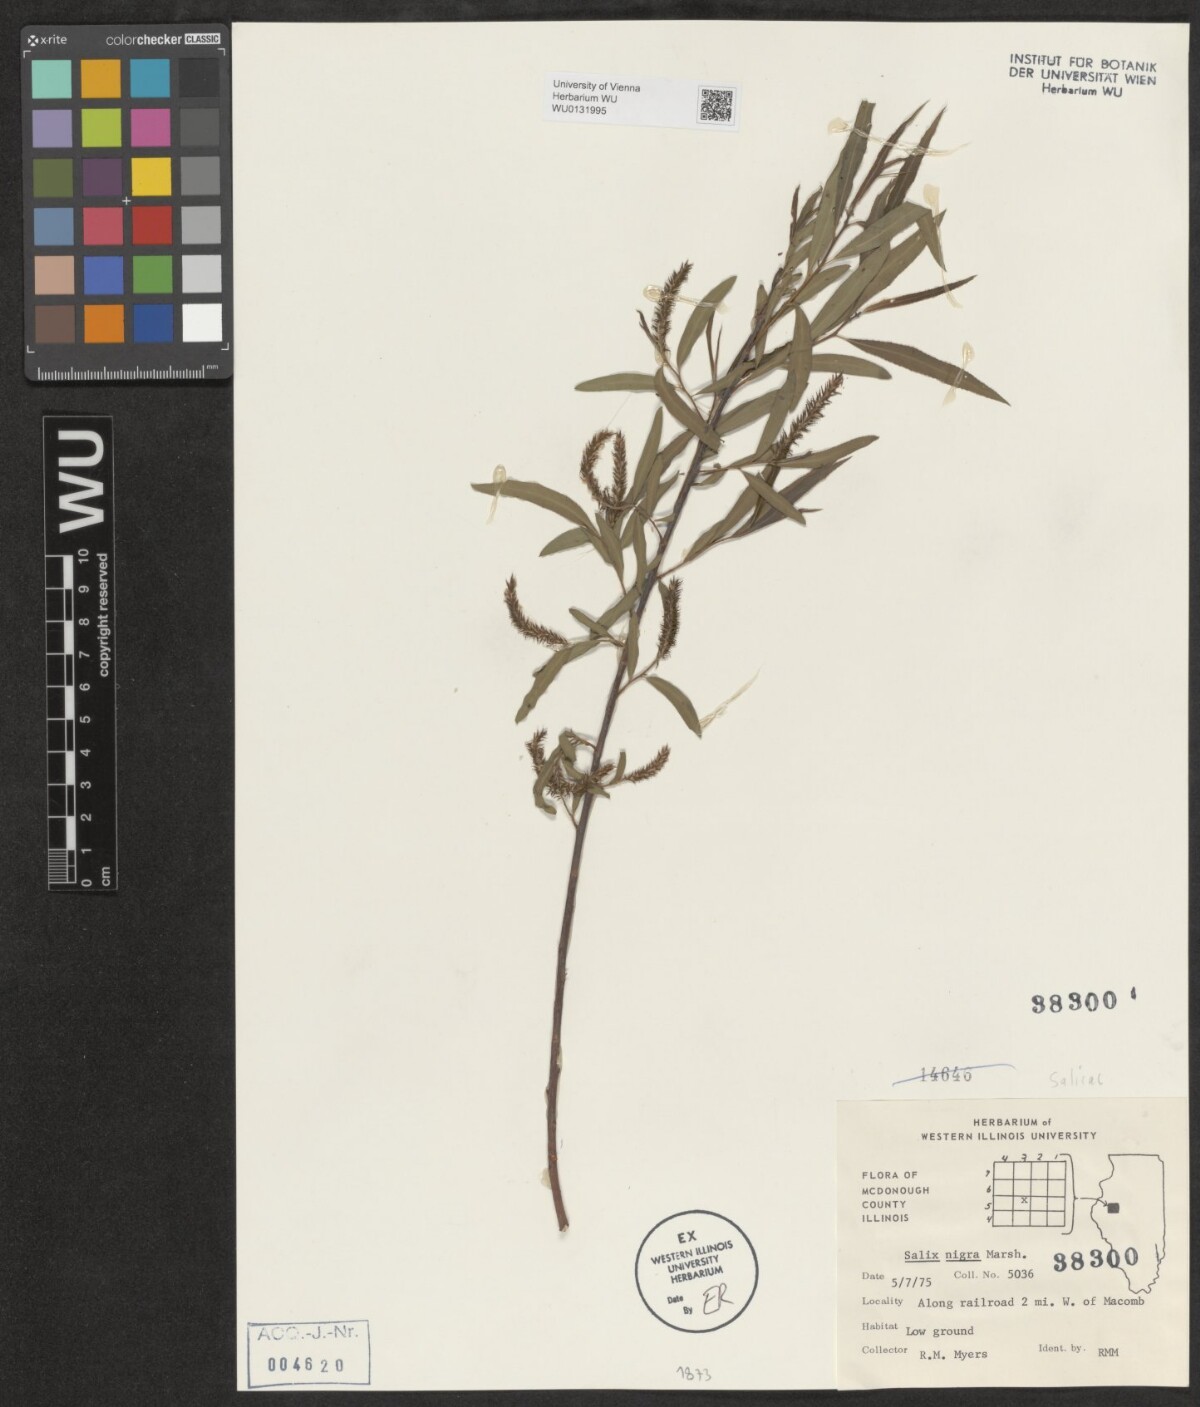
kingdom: Plantae
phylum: Tracheophyta
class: Magnoliopsida
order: Malpighiales
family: Salicaceae
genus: Salix
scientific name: Salix nigra
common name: Black willow
